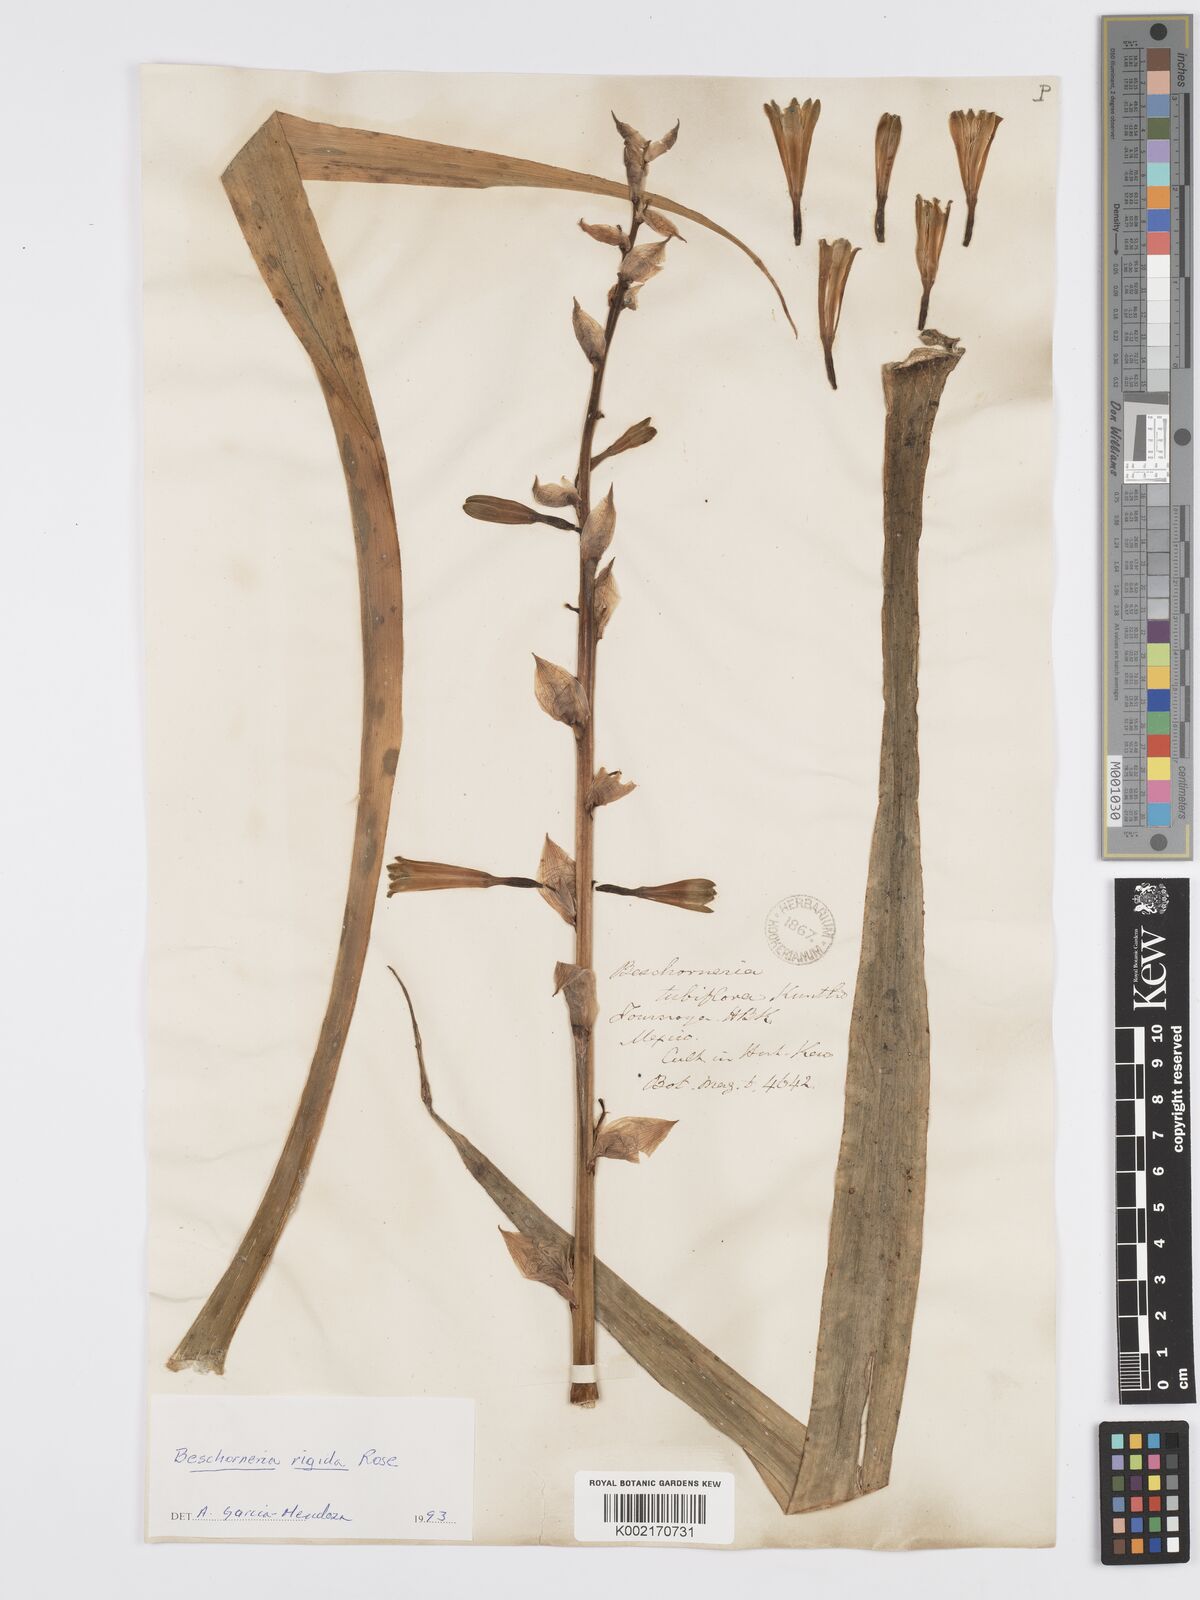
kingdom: Plantae
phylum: Tracheophyta
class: Liliopsida
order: Asparagales
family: Asparagaceae
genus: Beschorneria
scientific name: Beschorneria rigida
